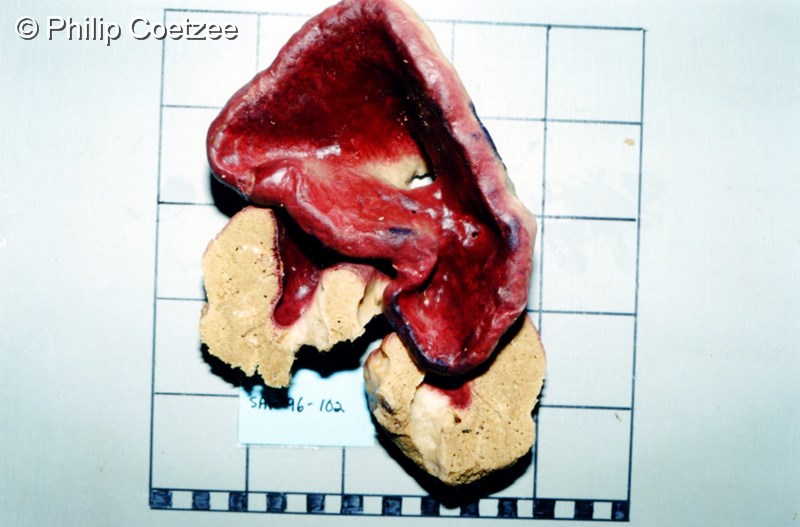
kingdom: Animalia
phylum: Porifera
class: Demospongiae
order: Haplosclerida
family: Petrosiidae
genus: Petrosia
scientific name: Petrosia
